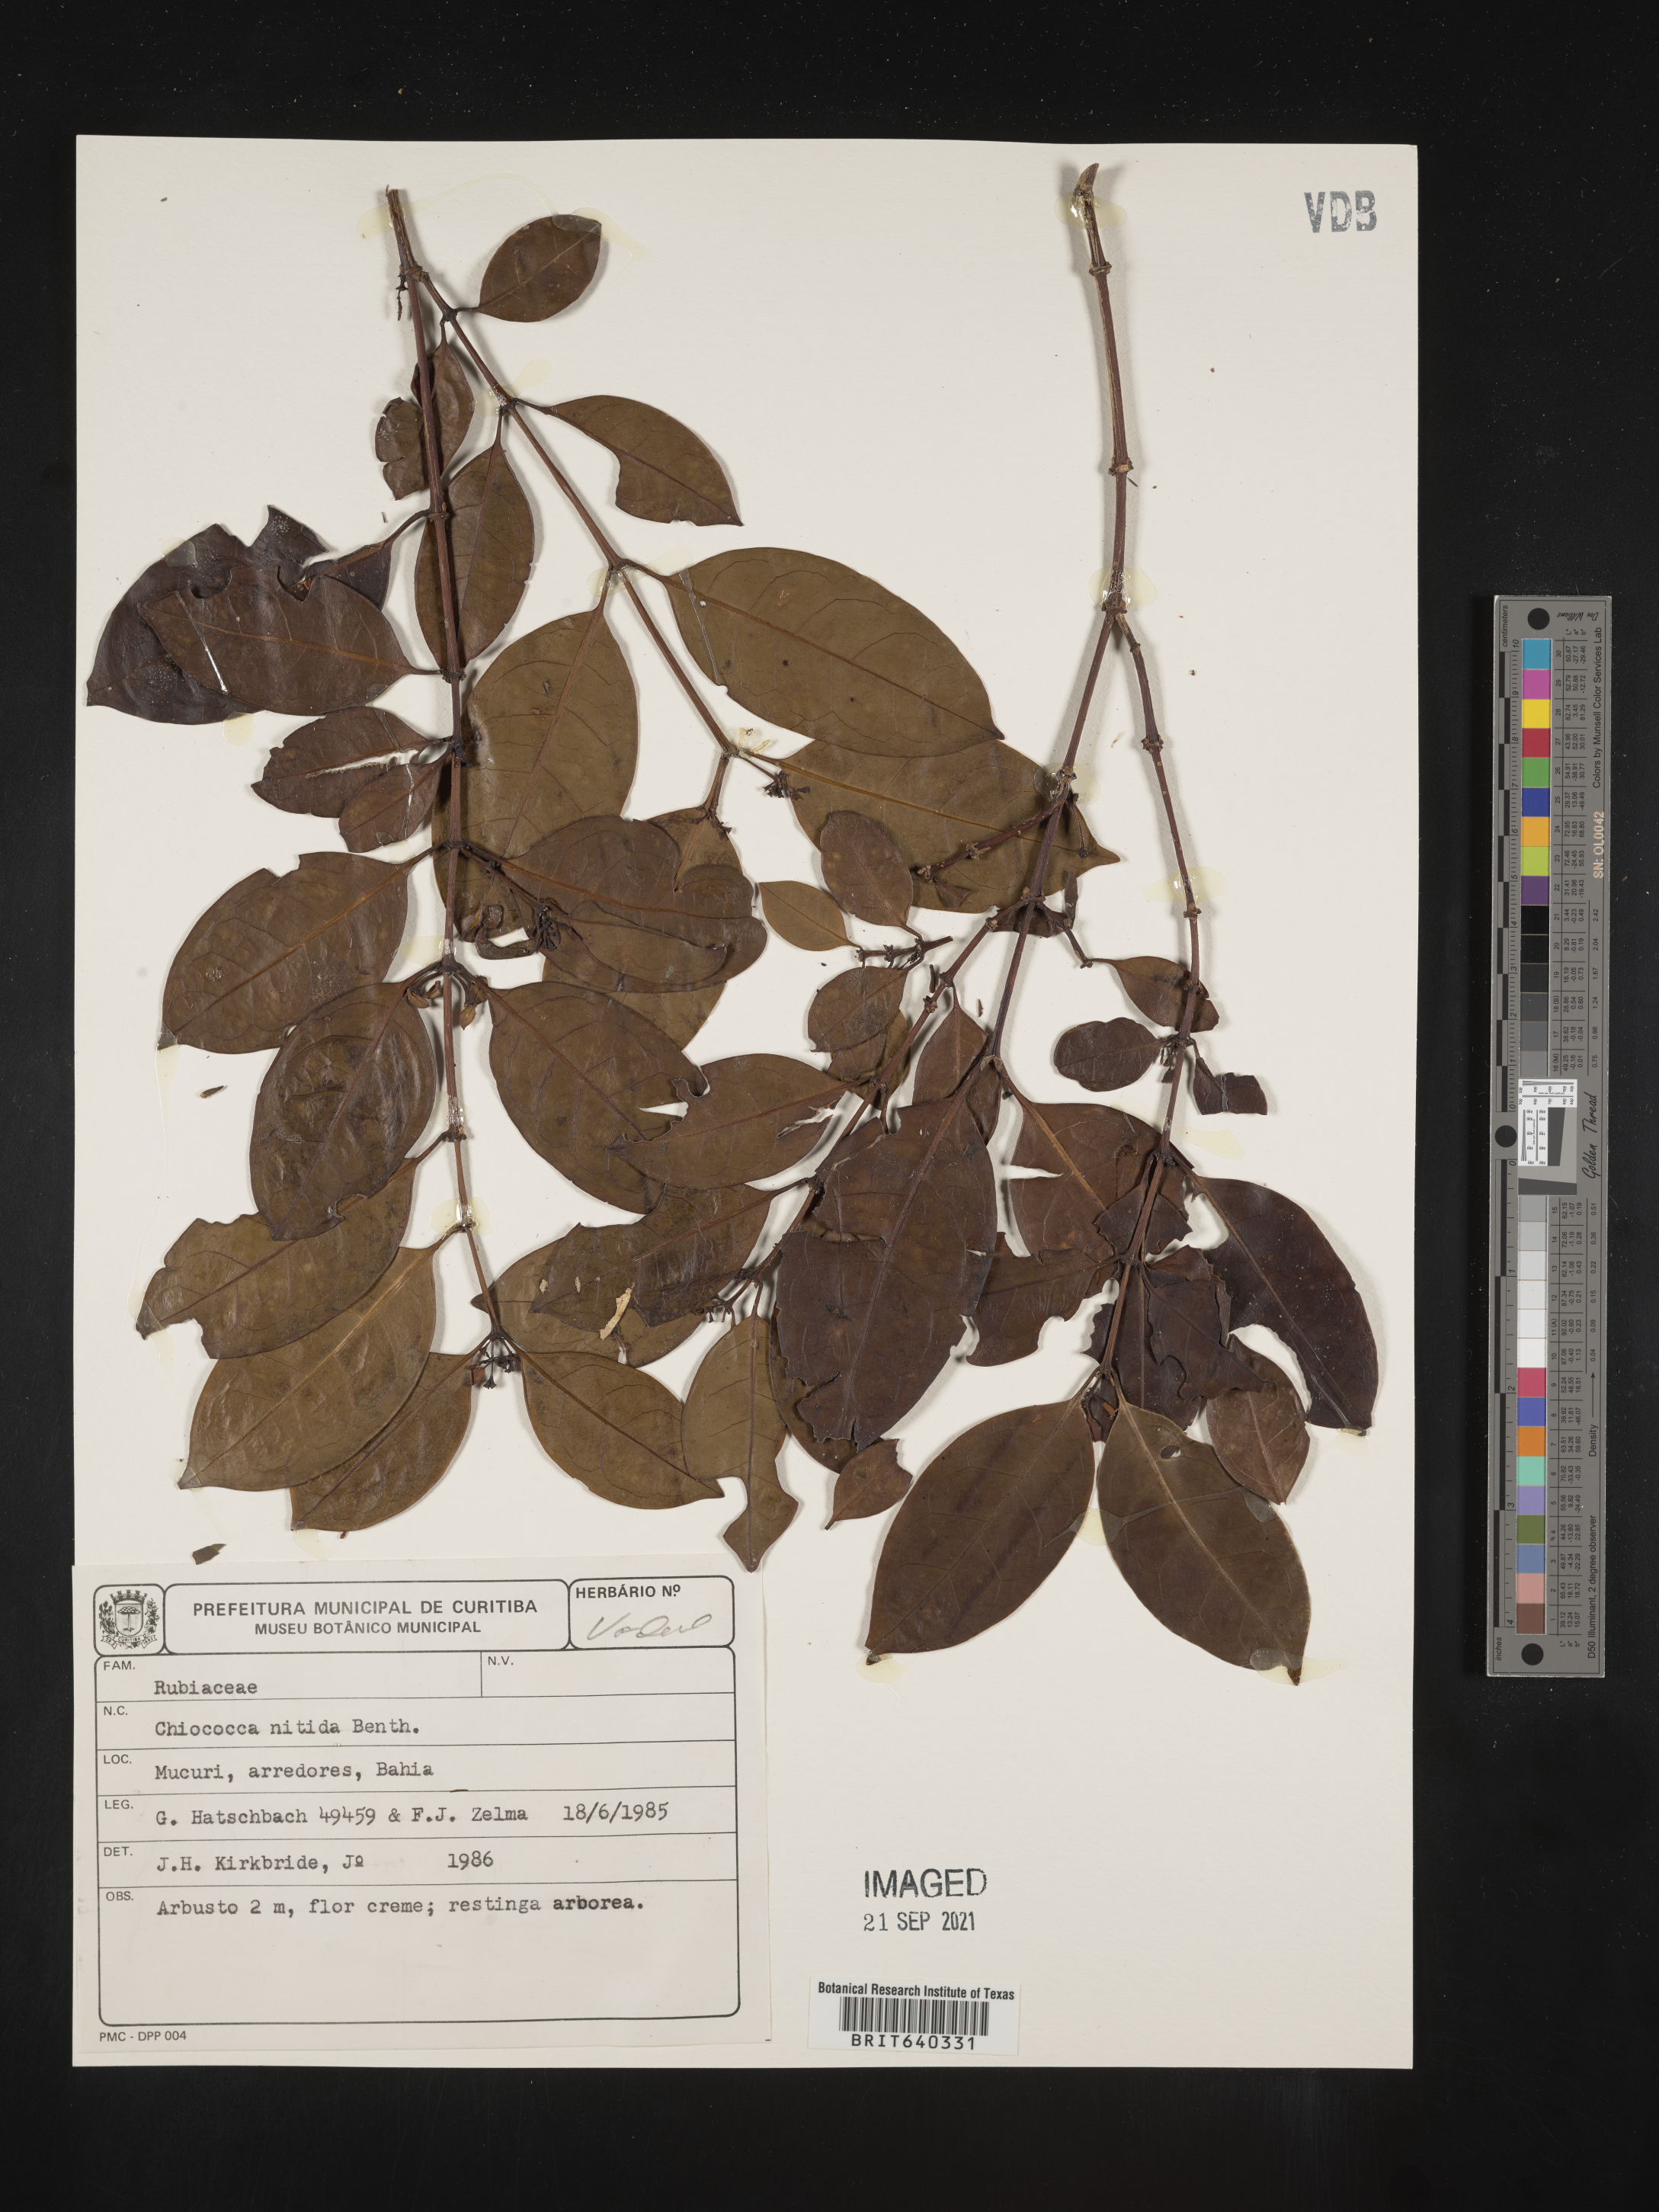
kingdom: Plantae
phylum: Tracheophyta
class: Magnoliopsida
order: Gentianales
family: Rubiaceae
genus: Chiococca
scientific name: Chiococca
